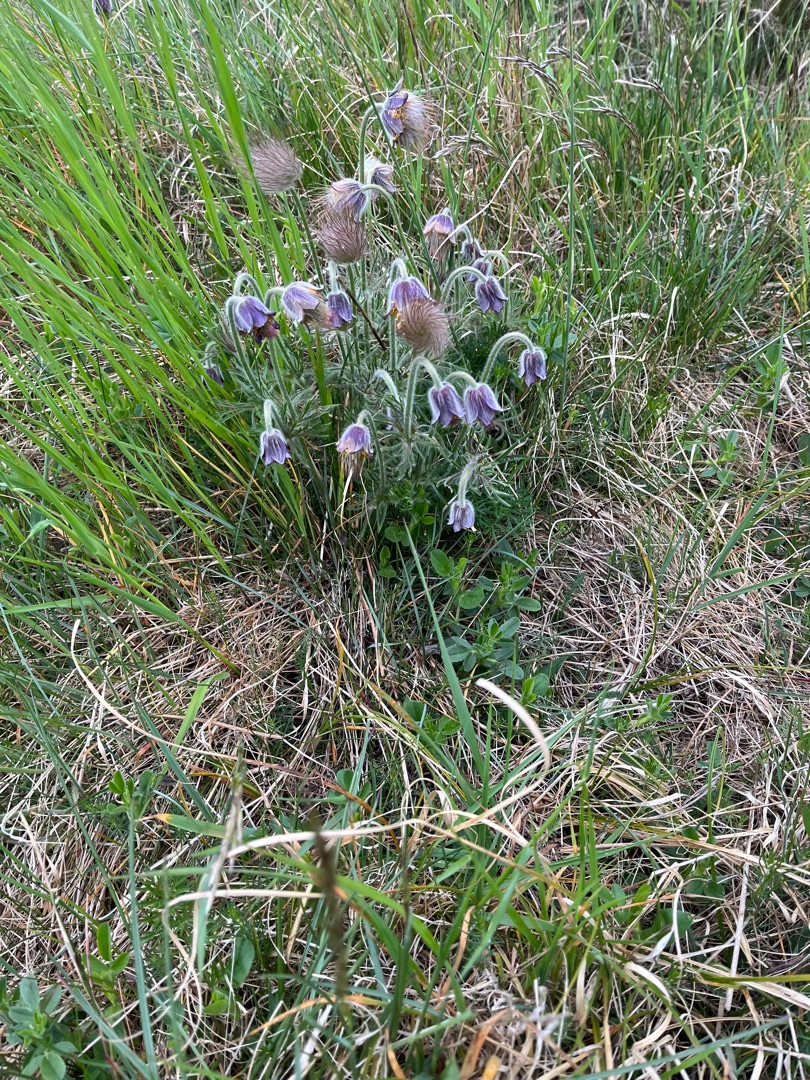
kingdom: Plantae
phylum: Tracheophyta
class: Magnoliopsida
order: Ranunculales
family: Ranunculaceae
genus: Pulsatilla
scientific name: Pulsatilla pratensis
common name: Nikkende kobjælde
